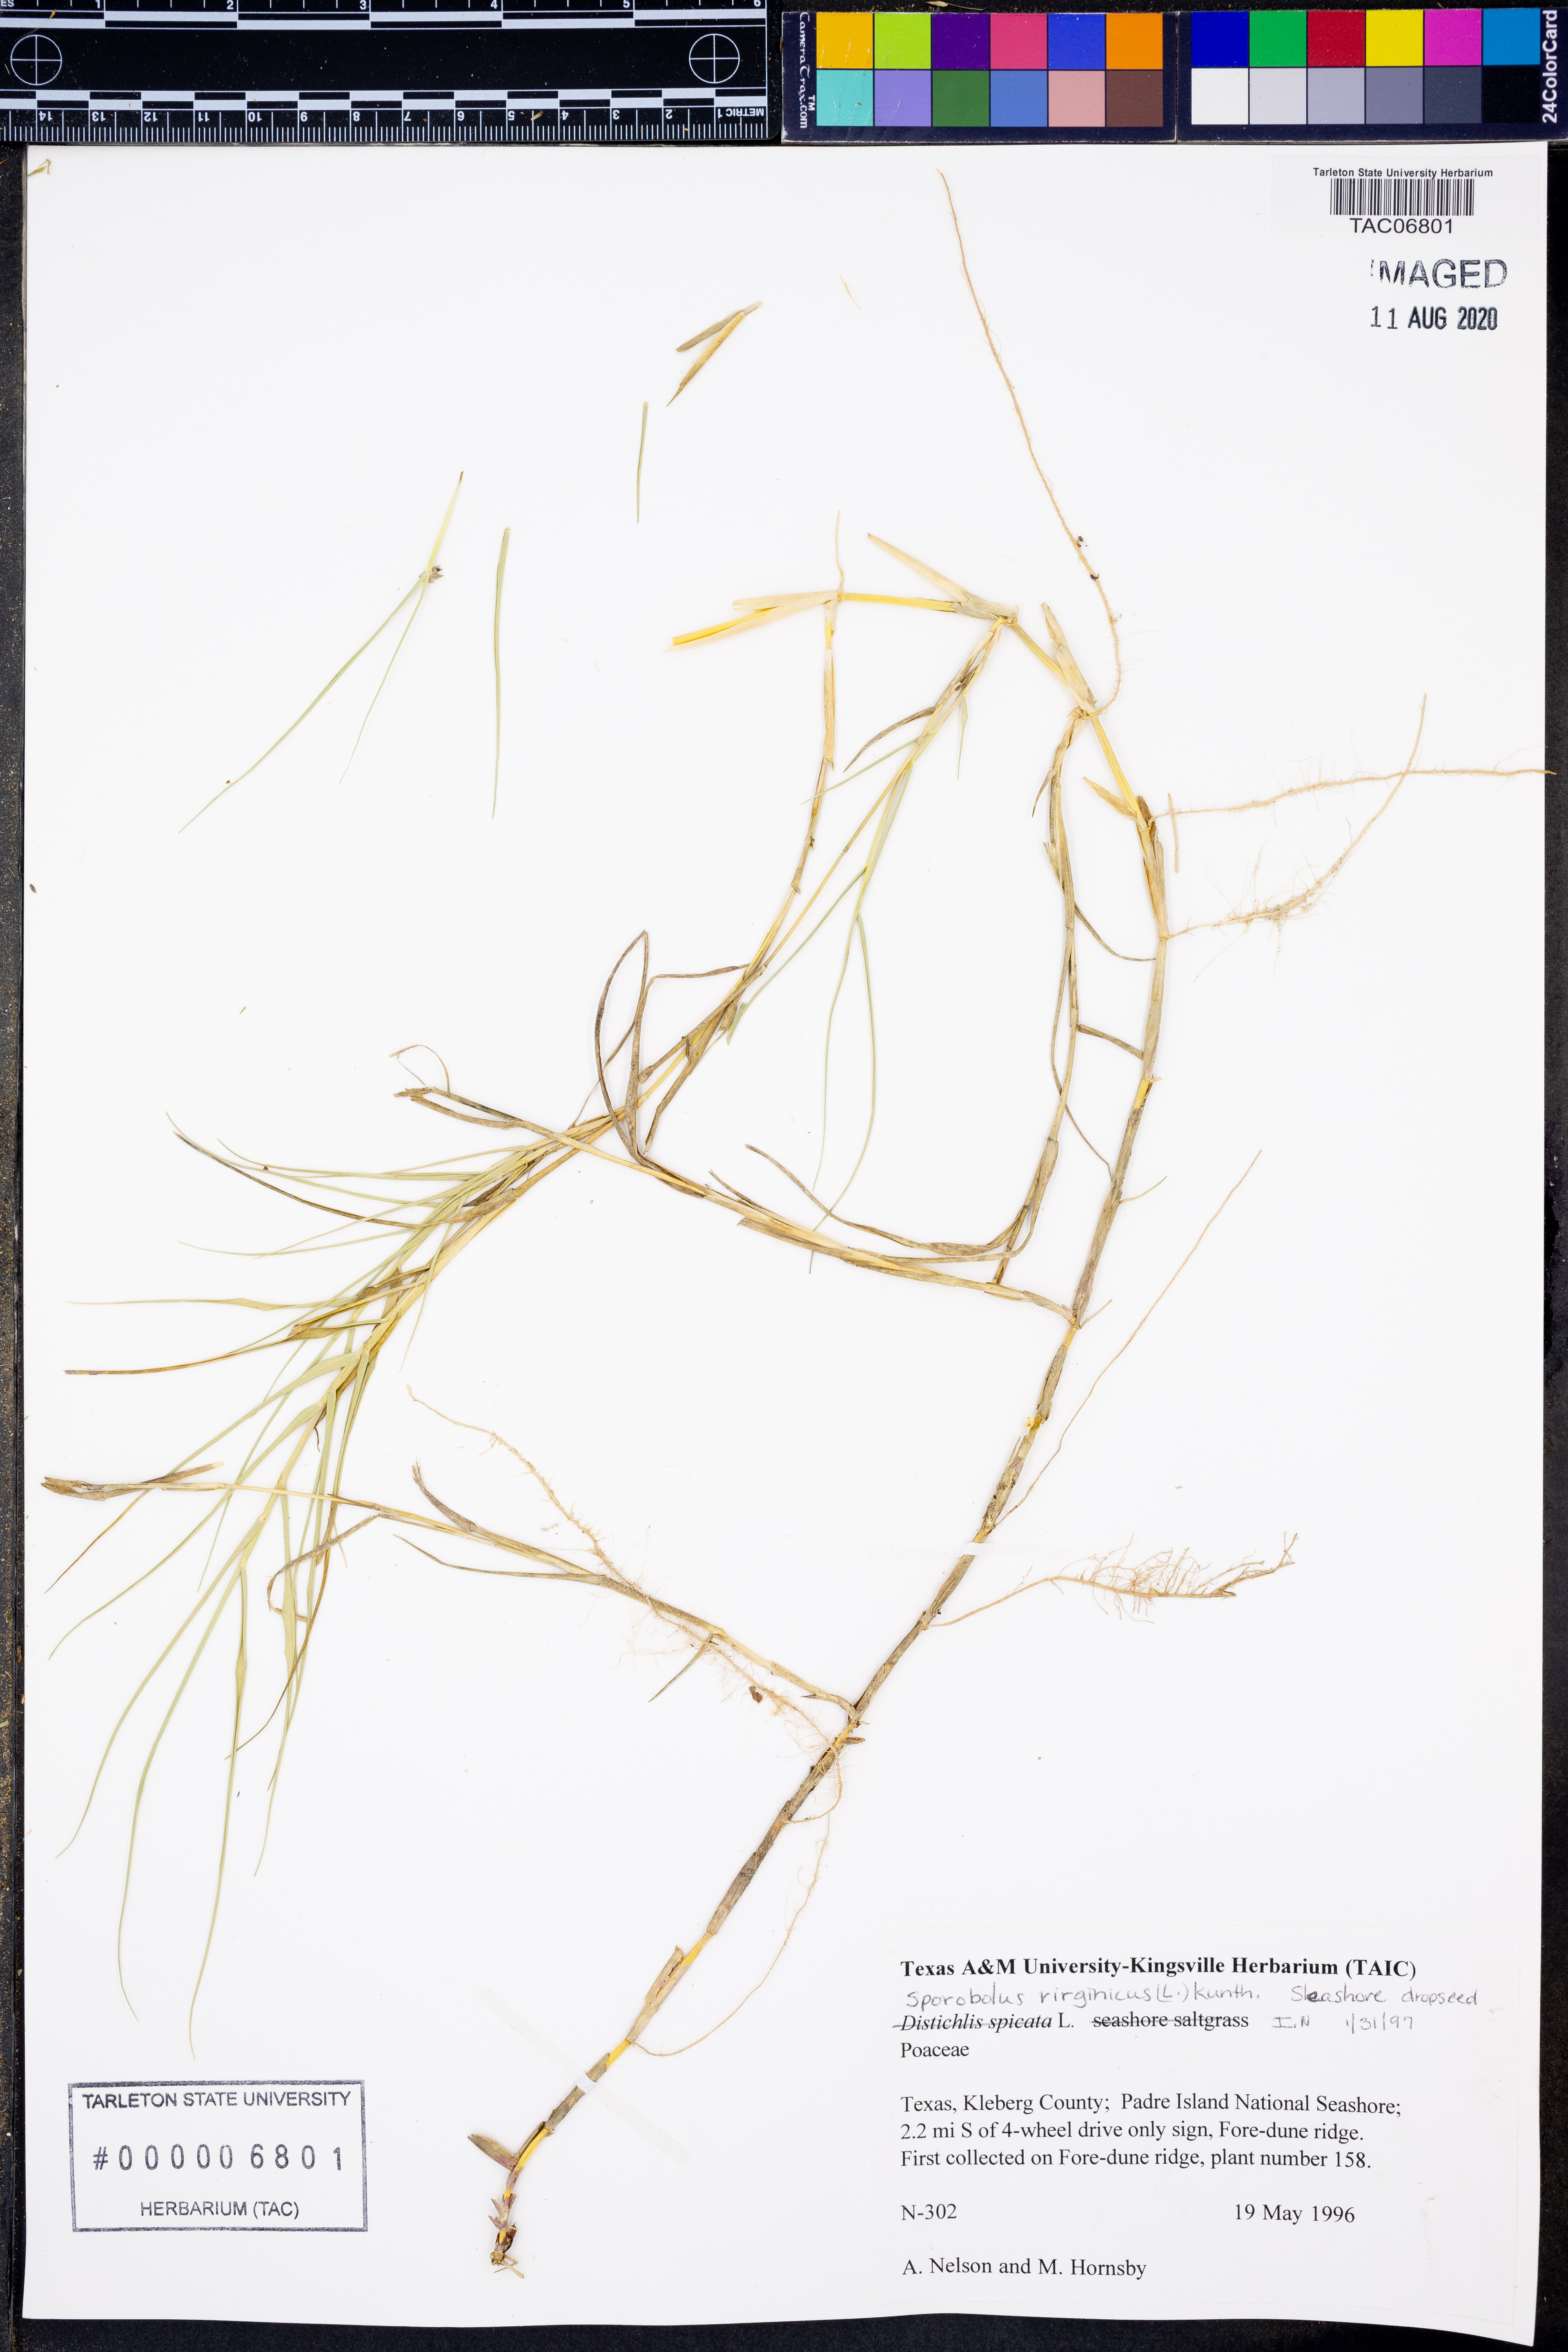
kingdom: Plantae
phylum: Tracheophyta
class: Liliopsida
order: Poales
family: Poaceae
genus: Sporobolus
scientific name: Sporobolus virginicus
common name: Beach dropseed
